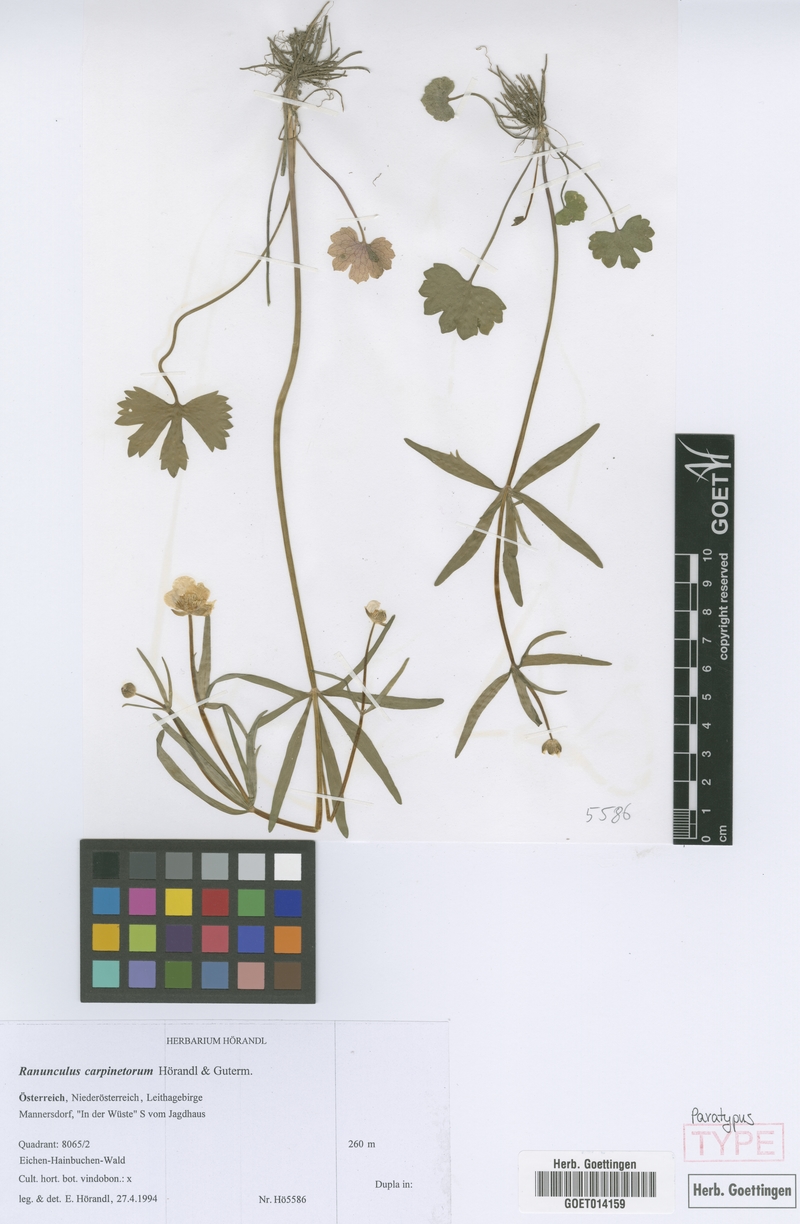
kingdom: Plantae
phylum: Tracheophyta
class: Magnoliopsida
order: Ranunculales
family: Ranunculaceae
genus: Ranunculus
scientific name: Ranunculus carpinetorum
